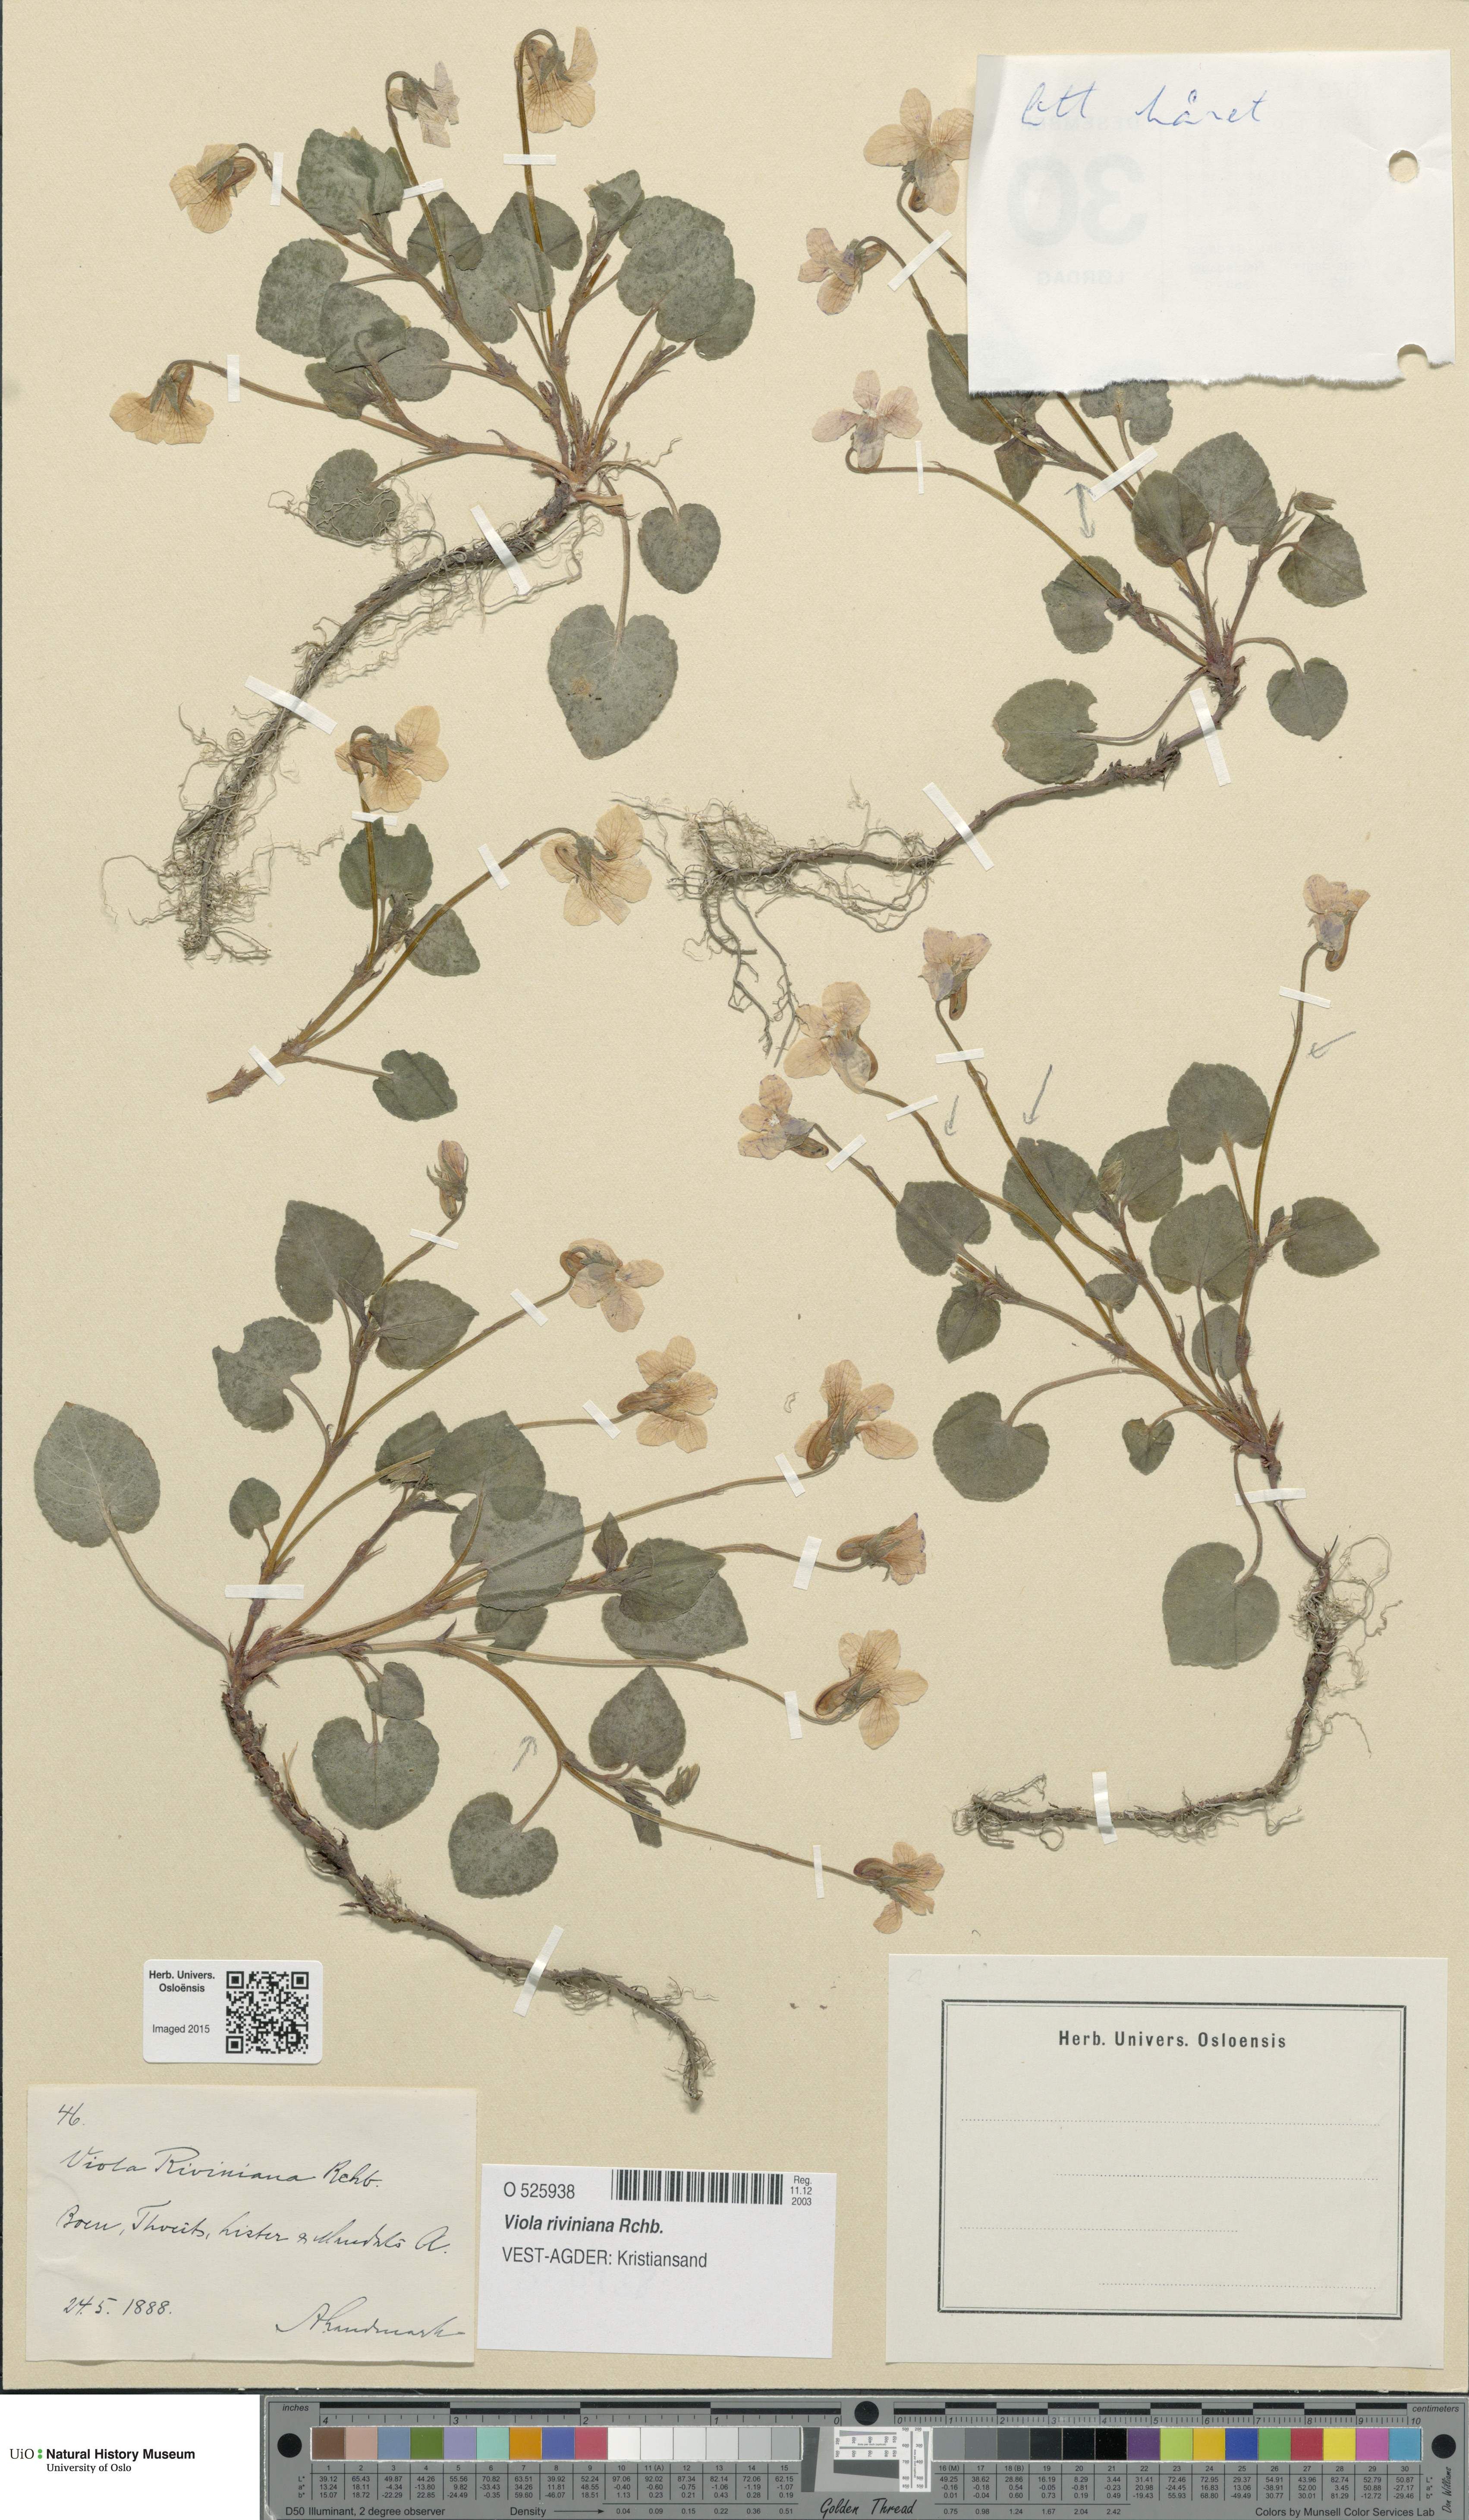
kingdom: Plantae
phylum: Tracheophyta
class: Magnoliopsida
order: Malpighiales
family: Violaceae
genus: Viola
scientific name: Viola riviniana
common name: Common dog-violet
